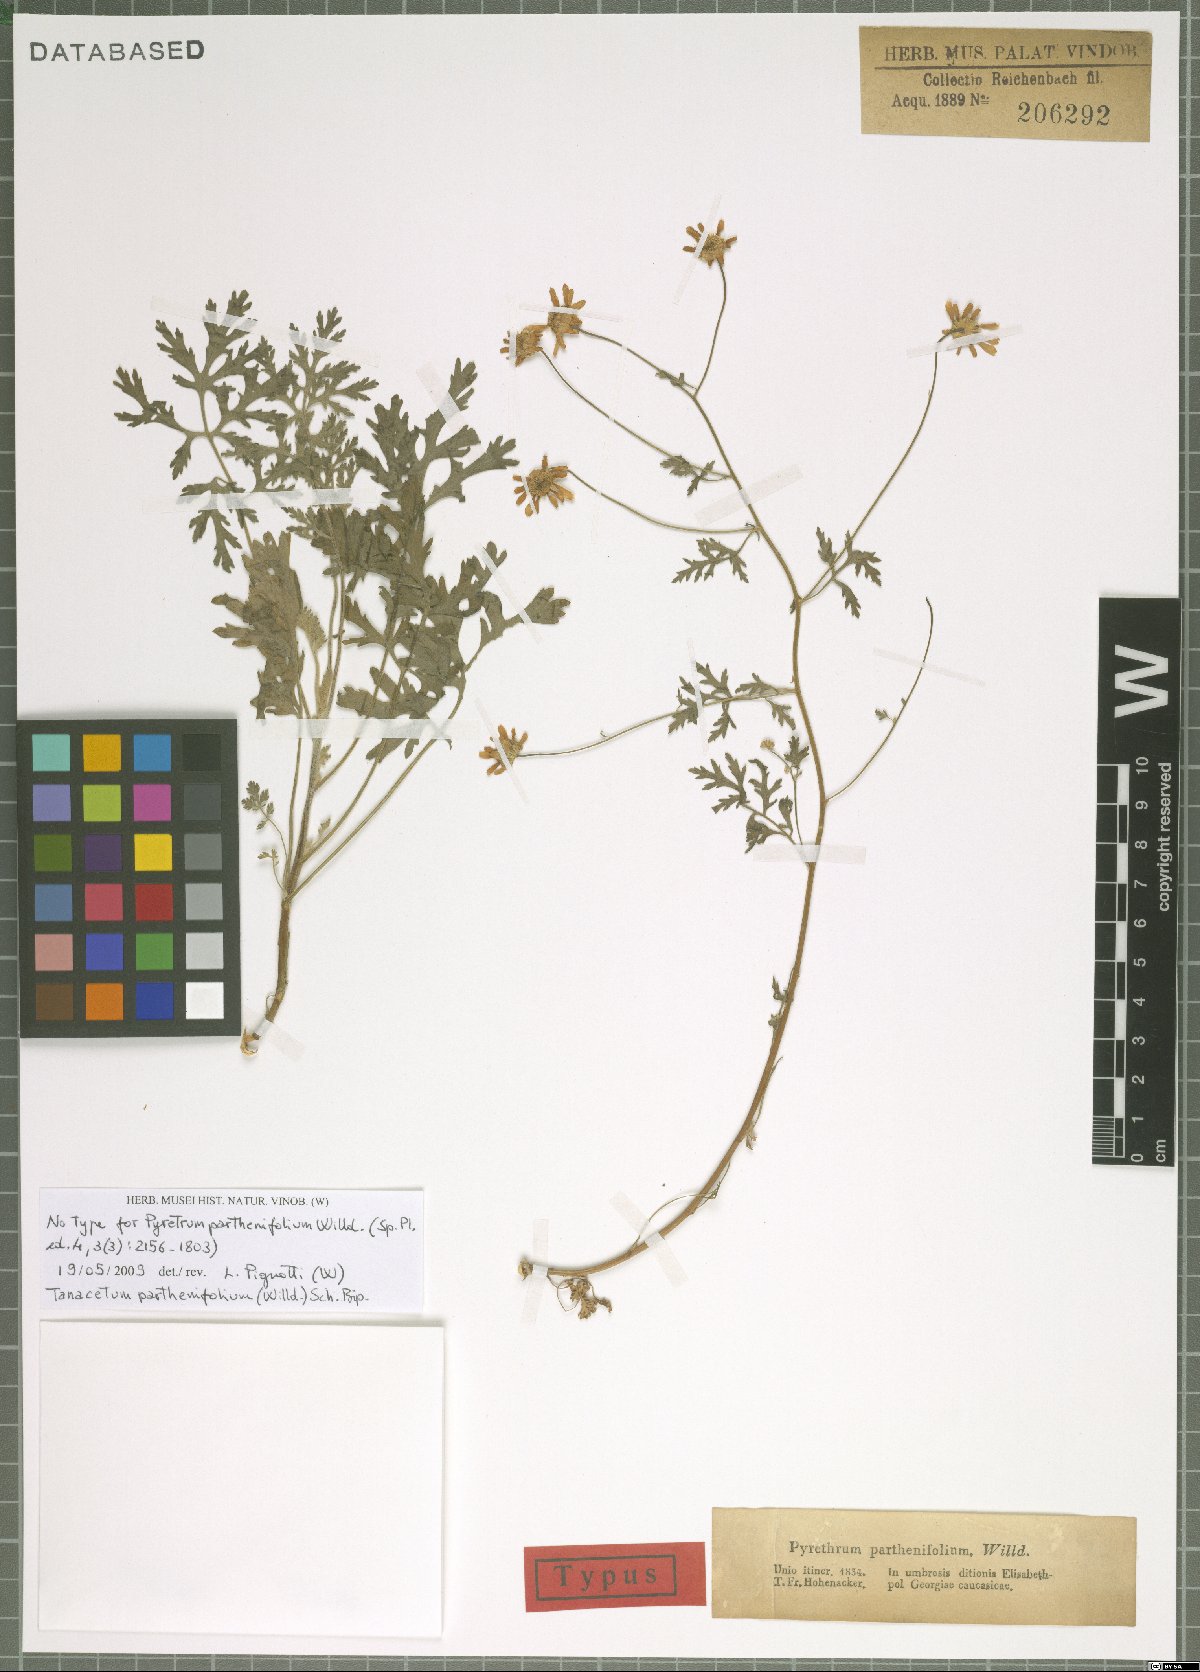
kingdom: Plantae
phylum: Tracheophyta
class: Magnoliopsida
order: Asterales
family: Asteraceae
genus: Tanacetum
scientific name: Tanacetum partheniifolium
